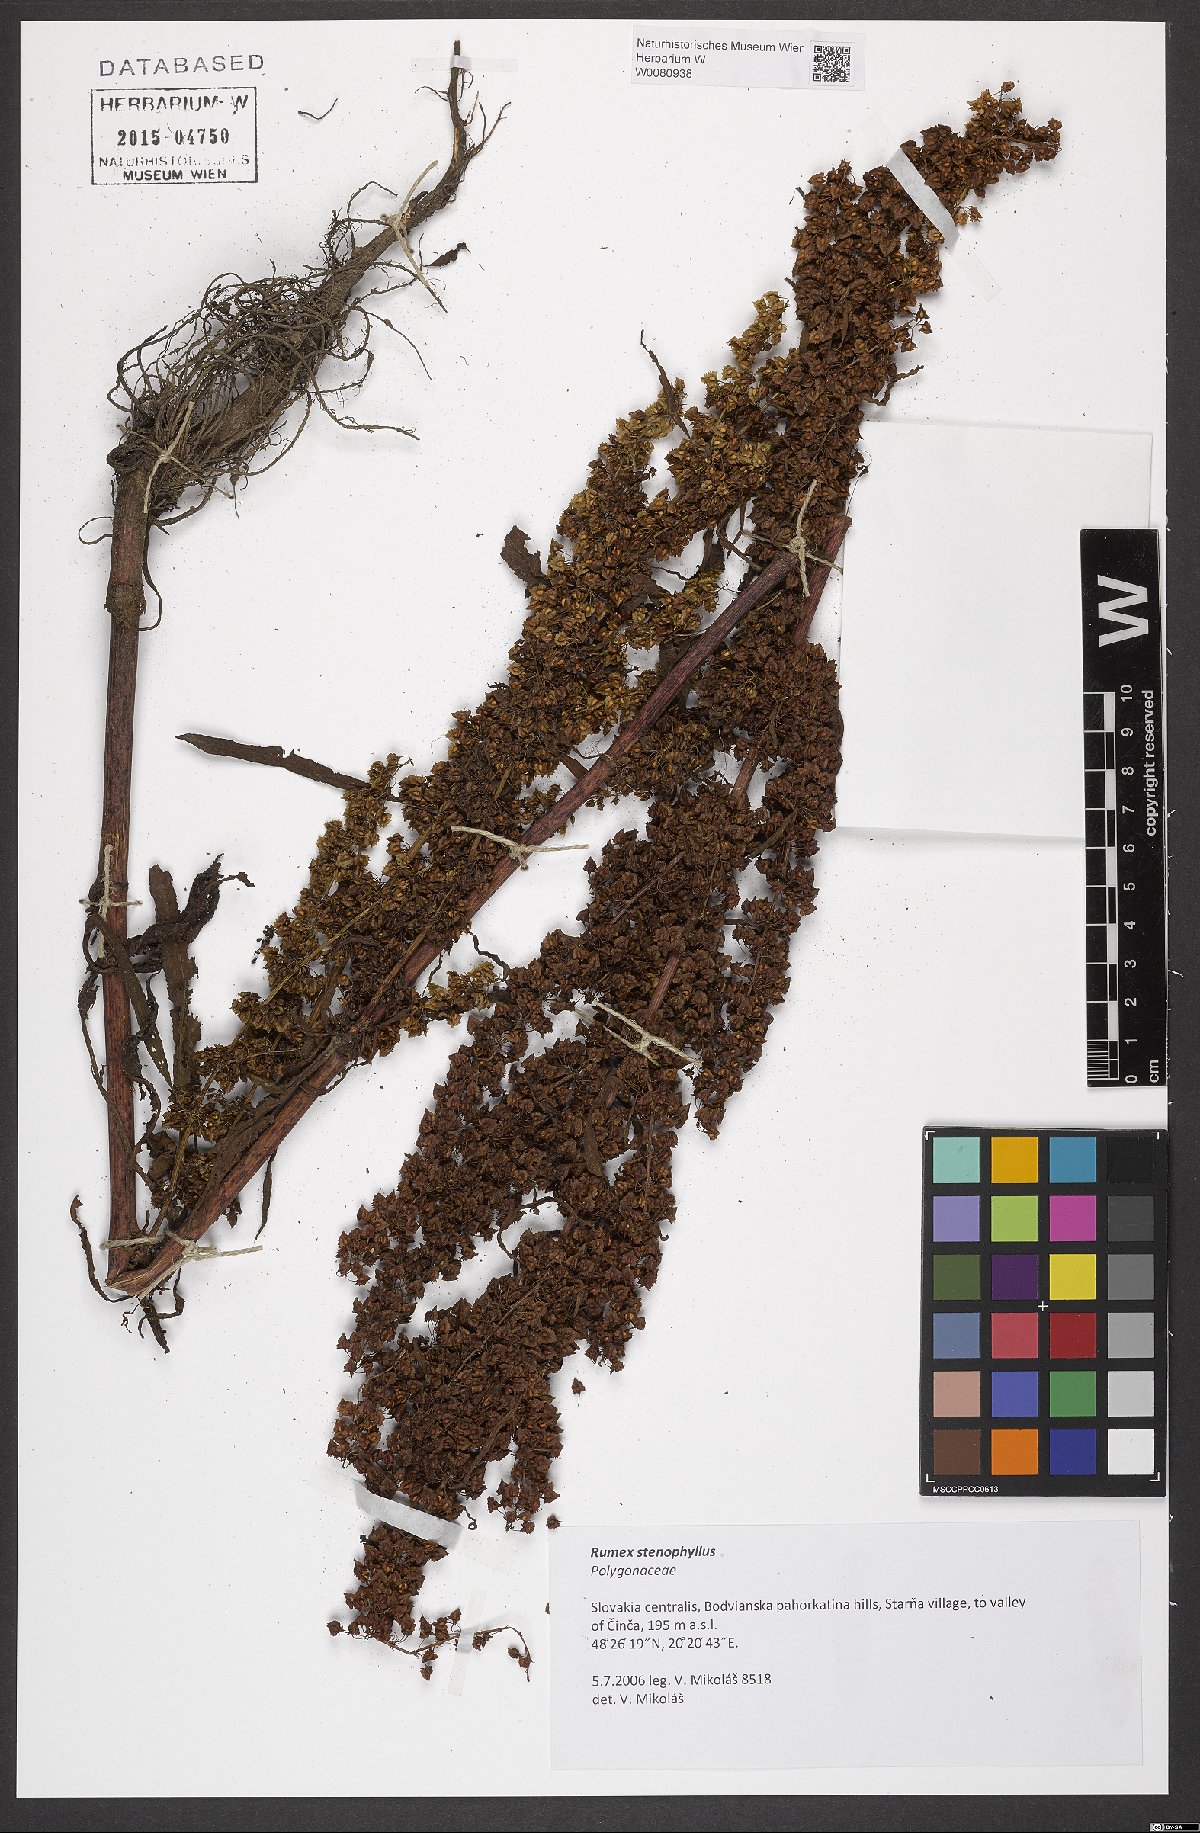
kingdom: Plantae
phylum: Tracheophyta
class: Magnoliopsida
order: Caryophyllales
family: Polygonaceae
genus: Rumex
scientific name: Rumex stenophyllus
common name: Narrowleaf dock
